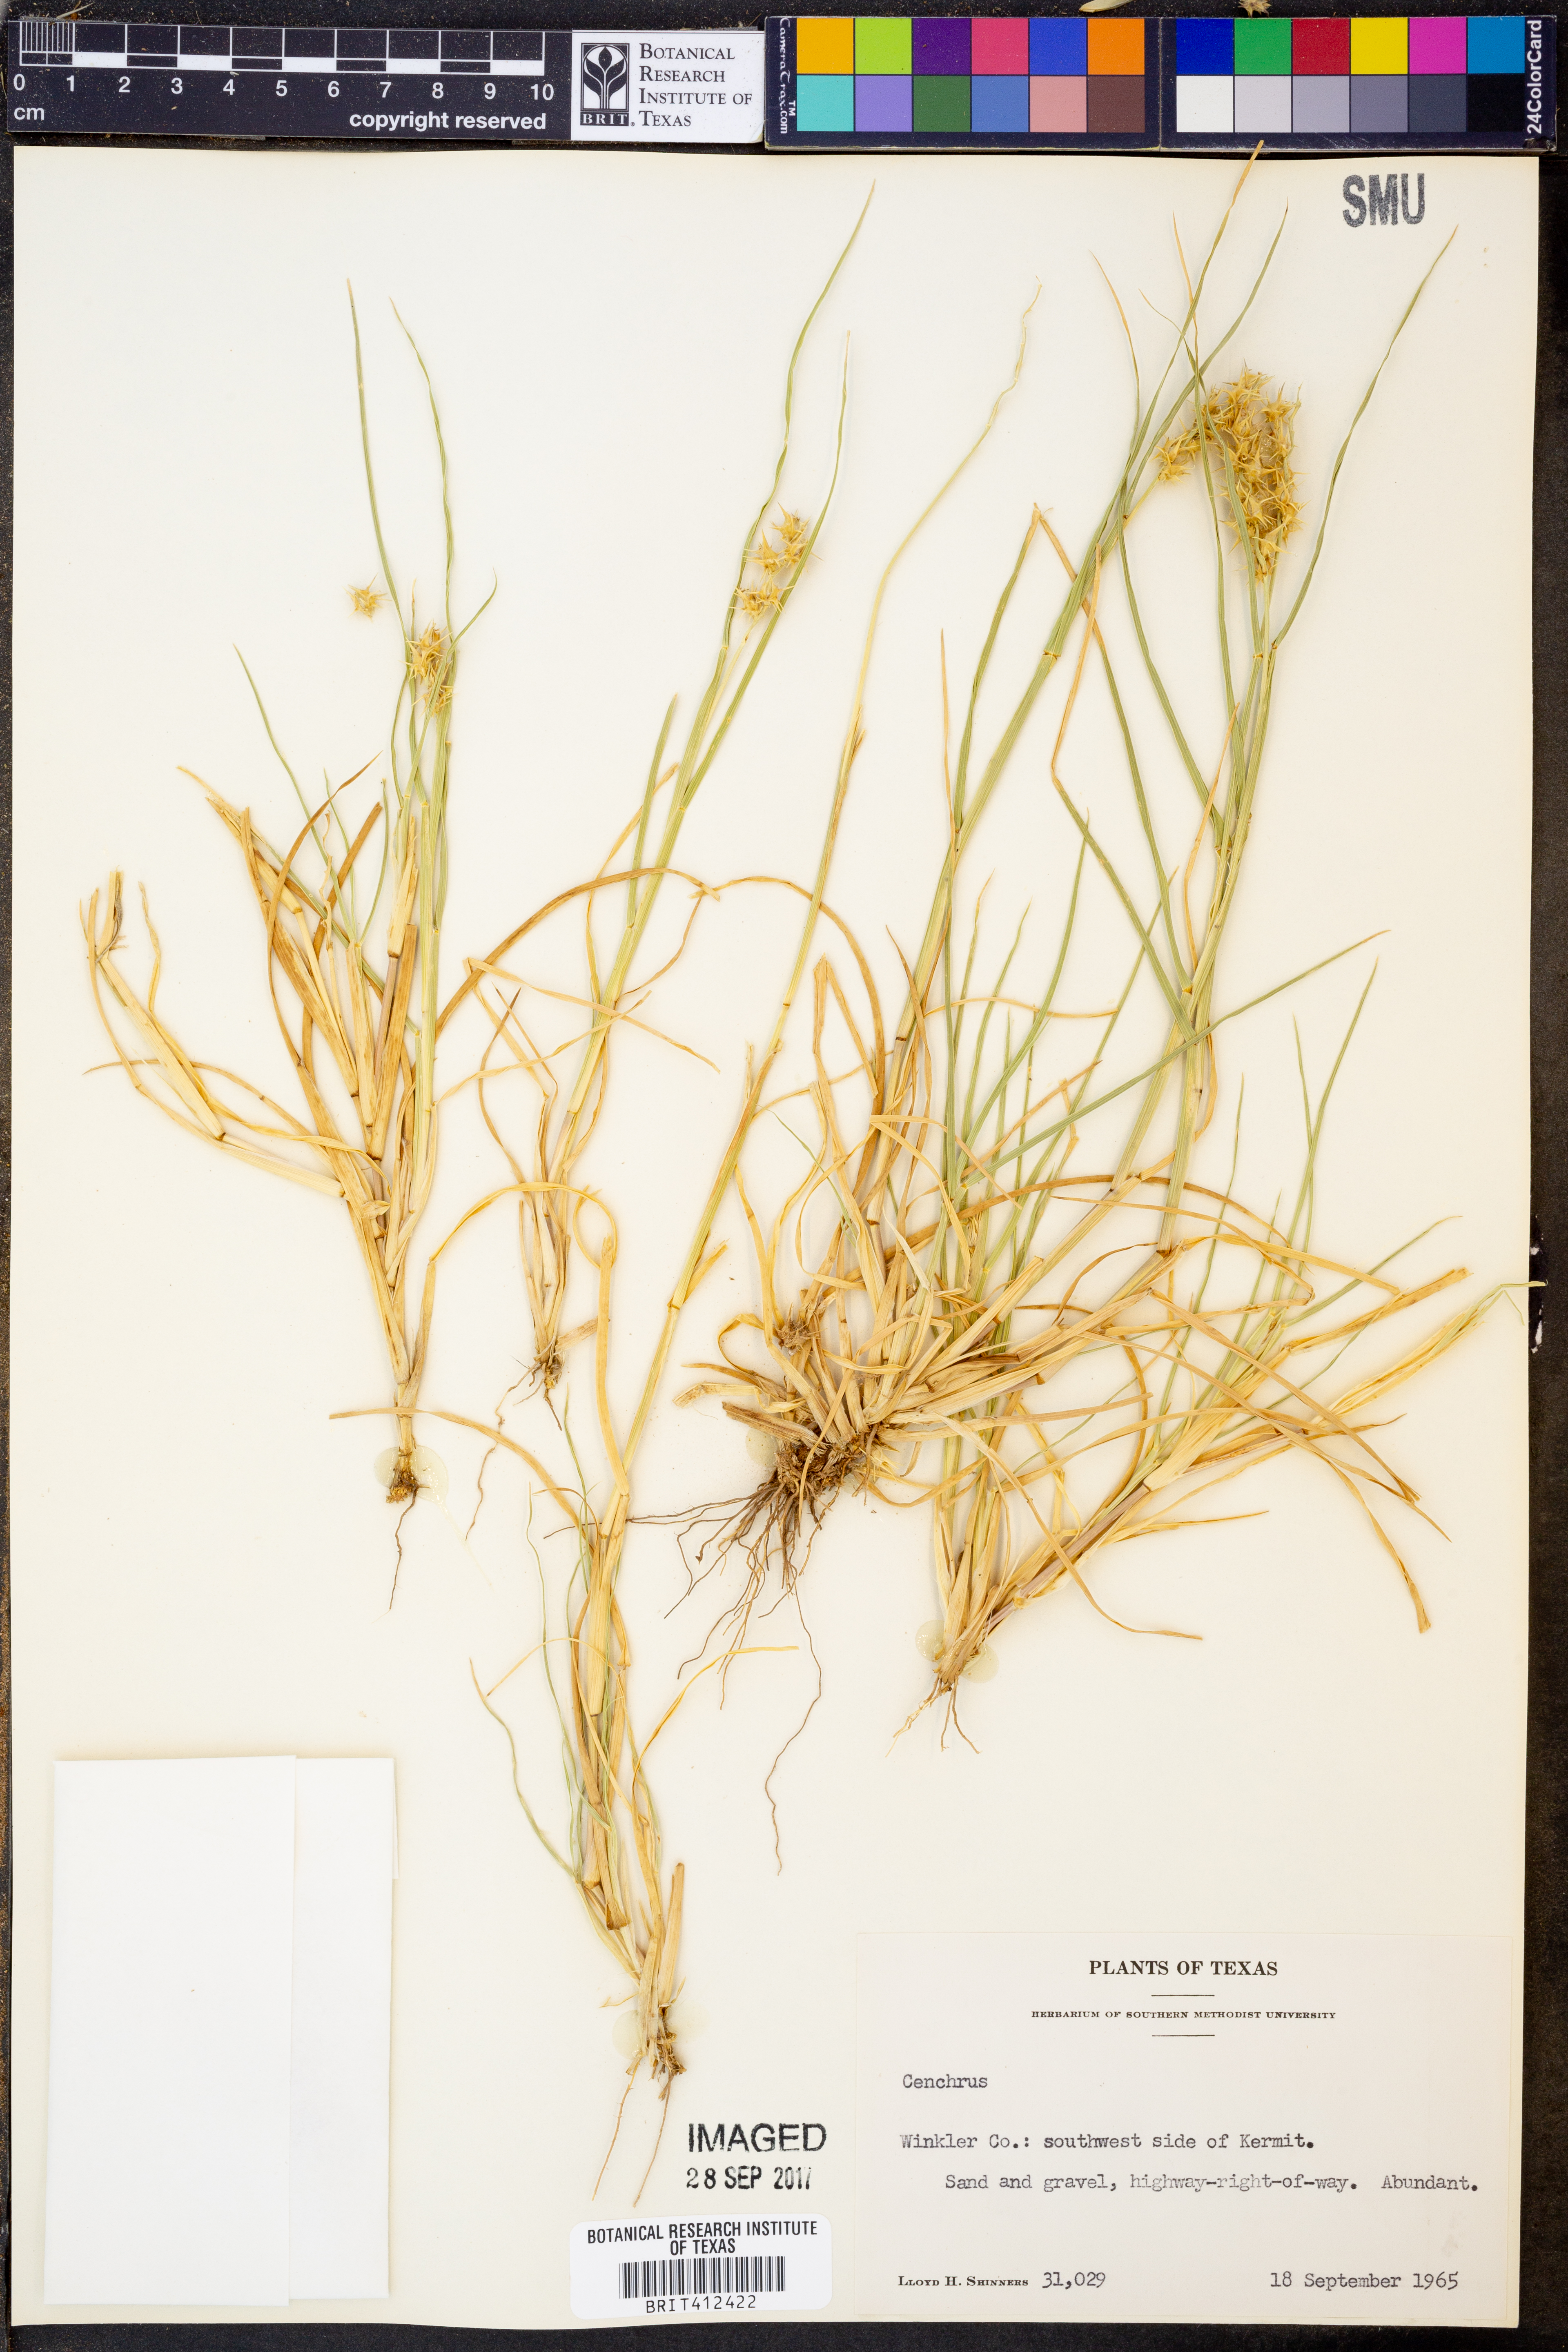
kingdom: Plantae
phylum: Tracheophyta
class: Liliopsida
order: Poales
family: Poaceae
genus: Cenchrus
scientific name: Cenchrus
